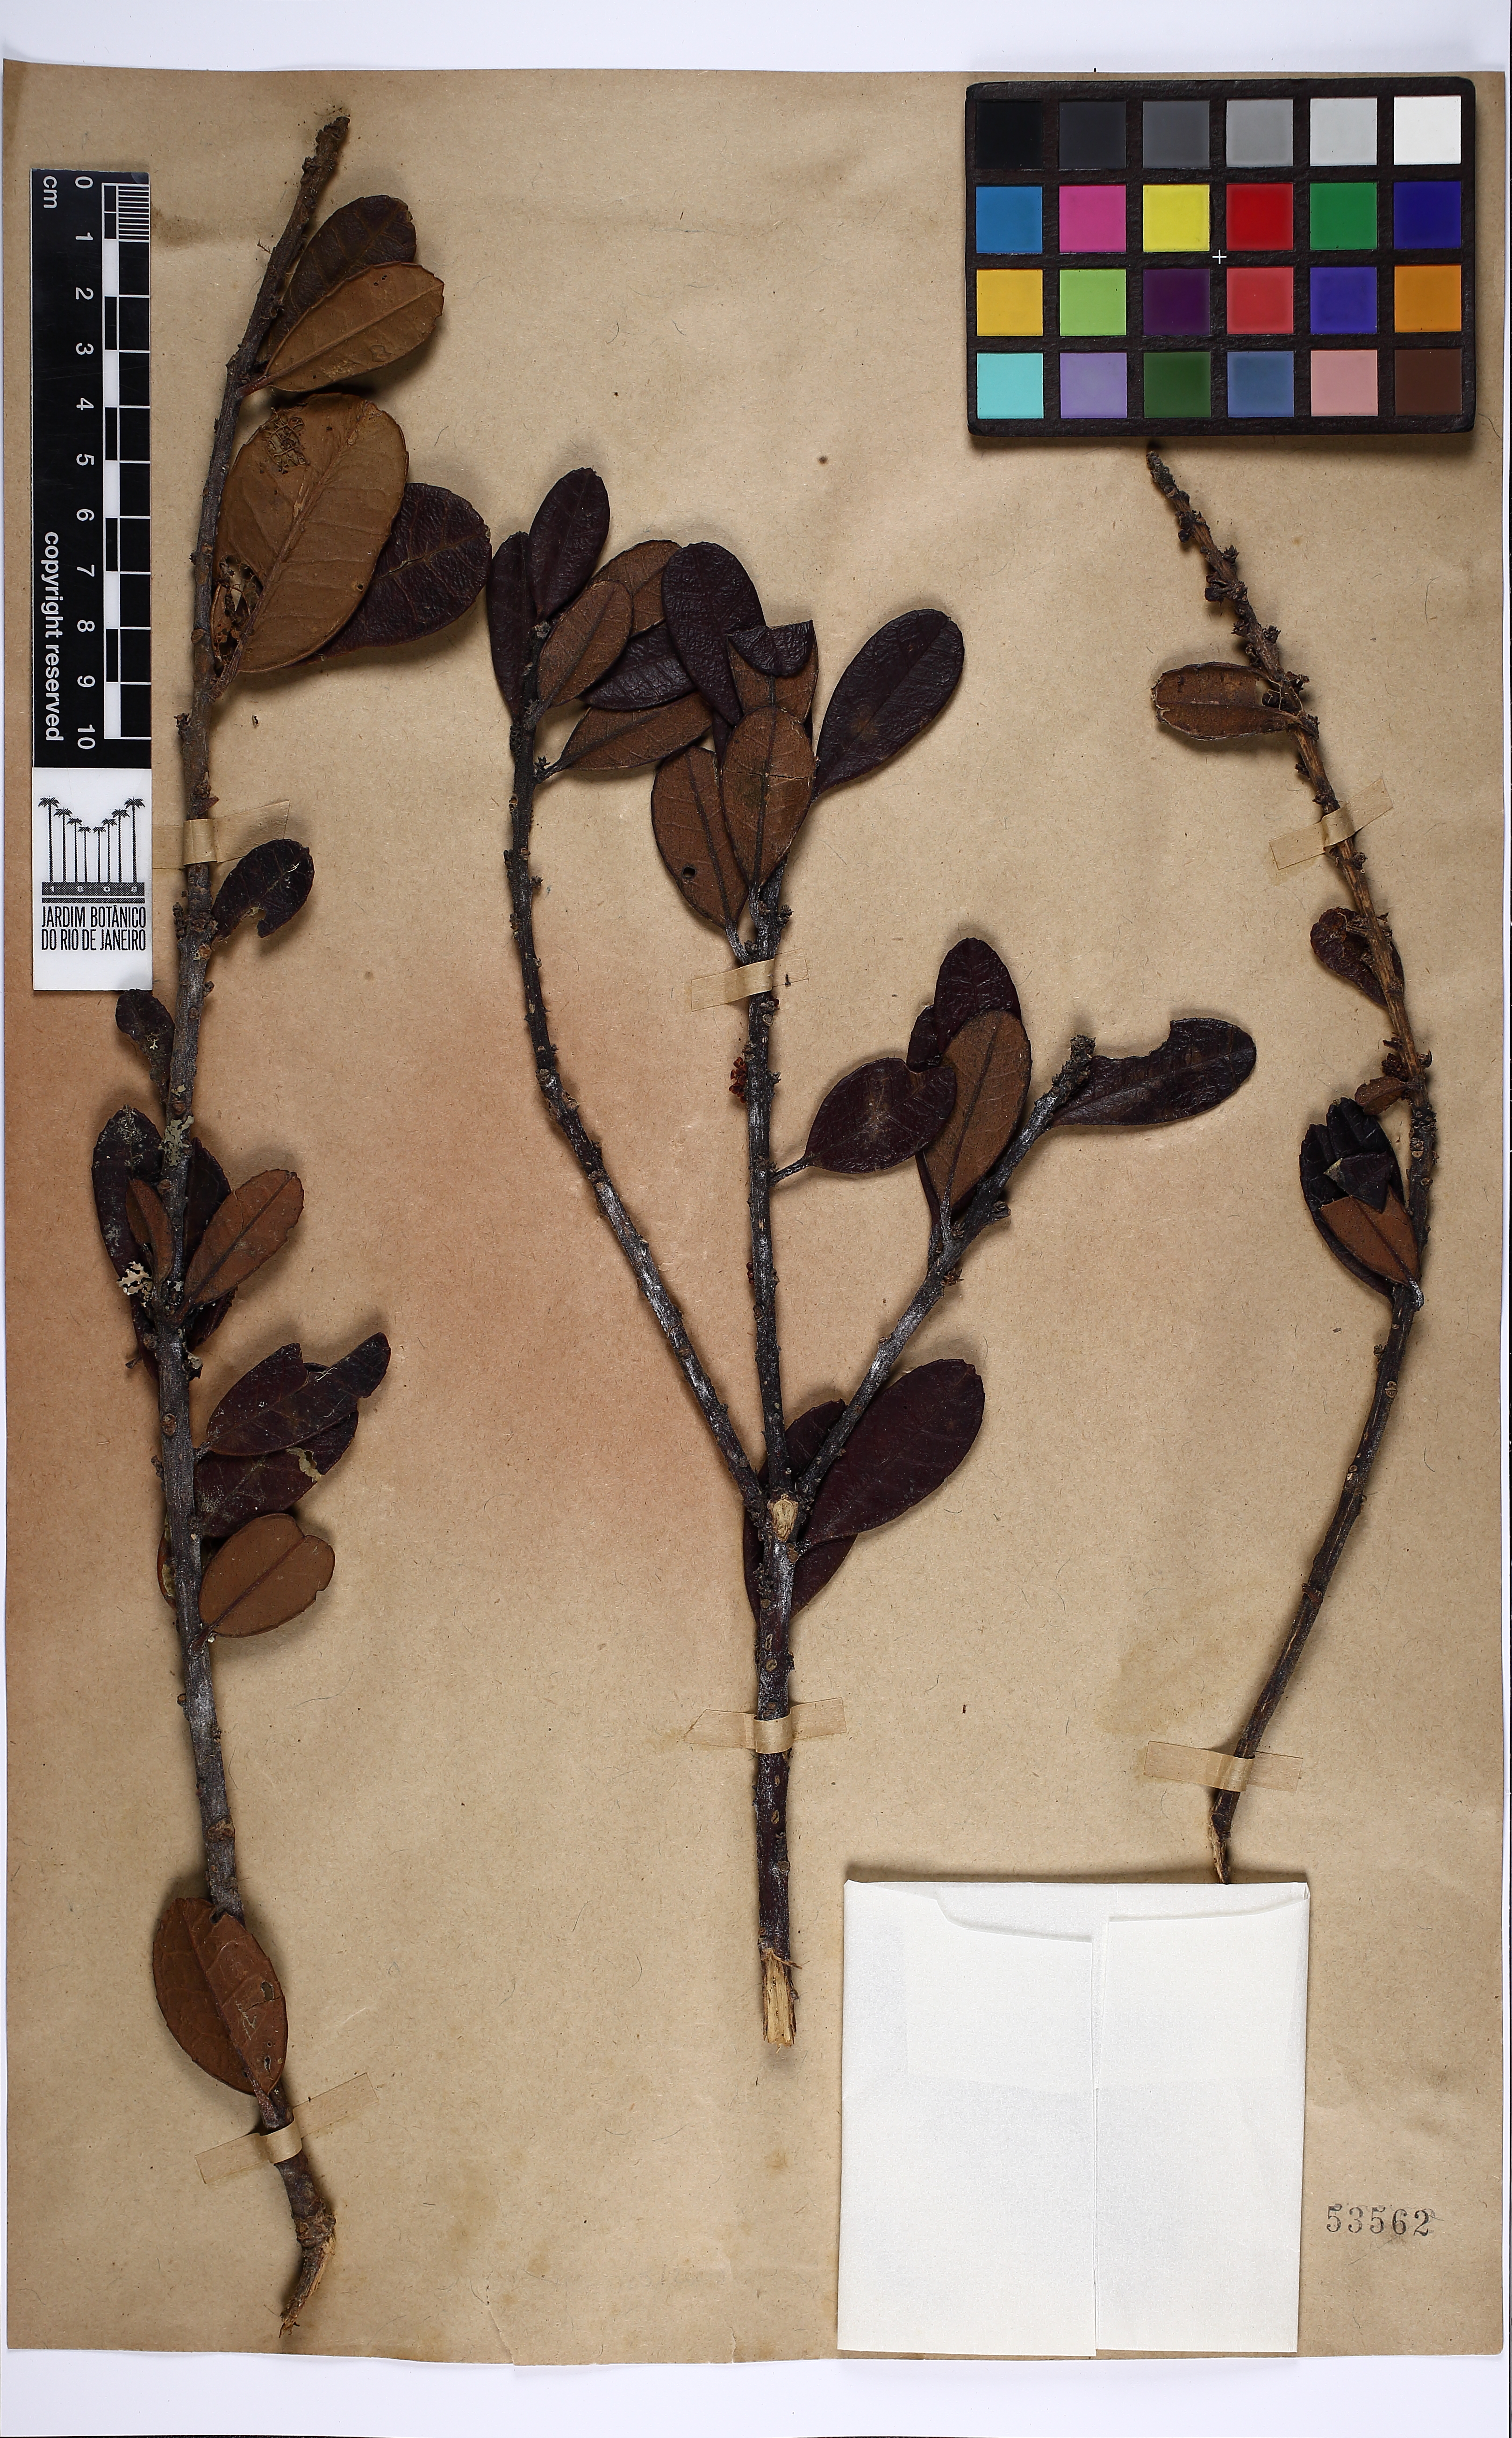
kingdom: Plantae
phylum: Tracheophyta
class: Magnoliopsida
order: Aquifoliales
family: Aquifoliaceae
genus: Ilex
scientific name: Ilex euryaeformis
